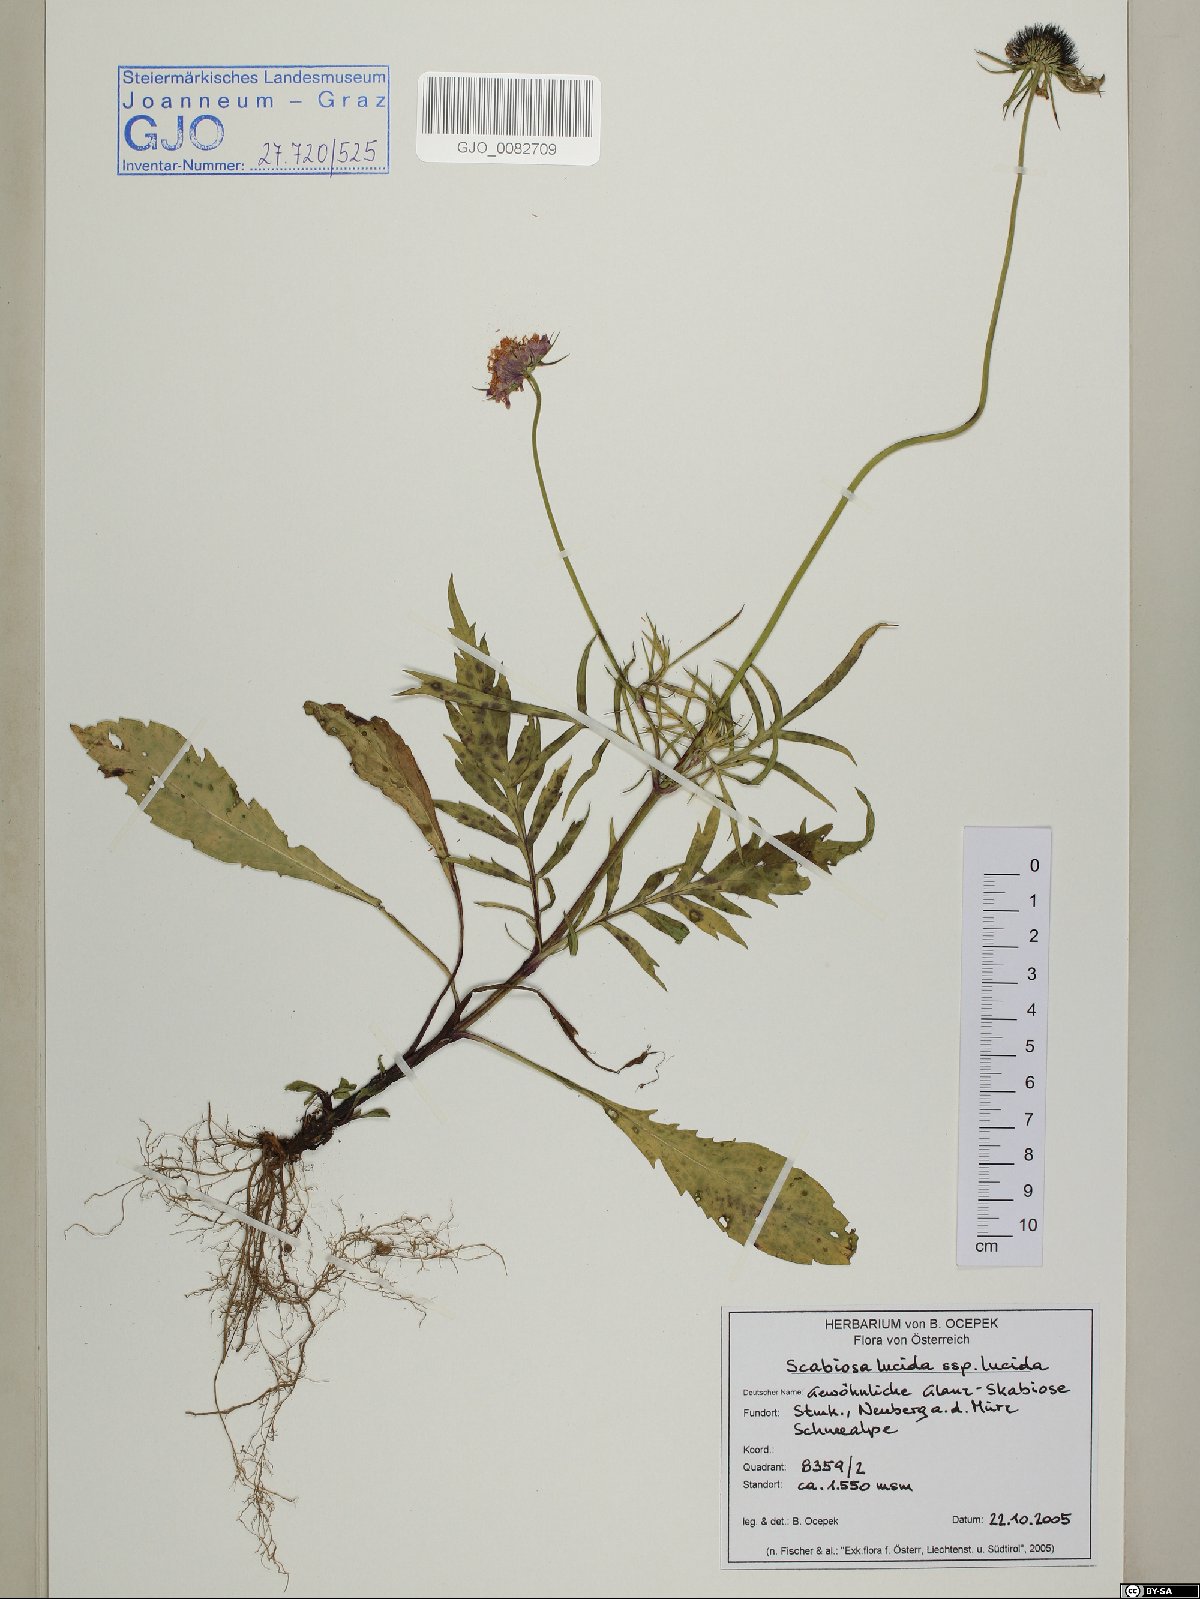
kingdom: Plantae
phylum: Tracheophyta
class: Magnoliopsida
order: Dipsacales
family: Caprifoliaceae
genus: Scabiosa
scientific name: Scabiosa lucida
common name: Shining scabious
